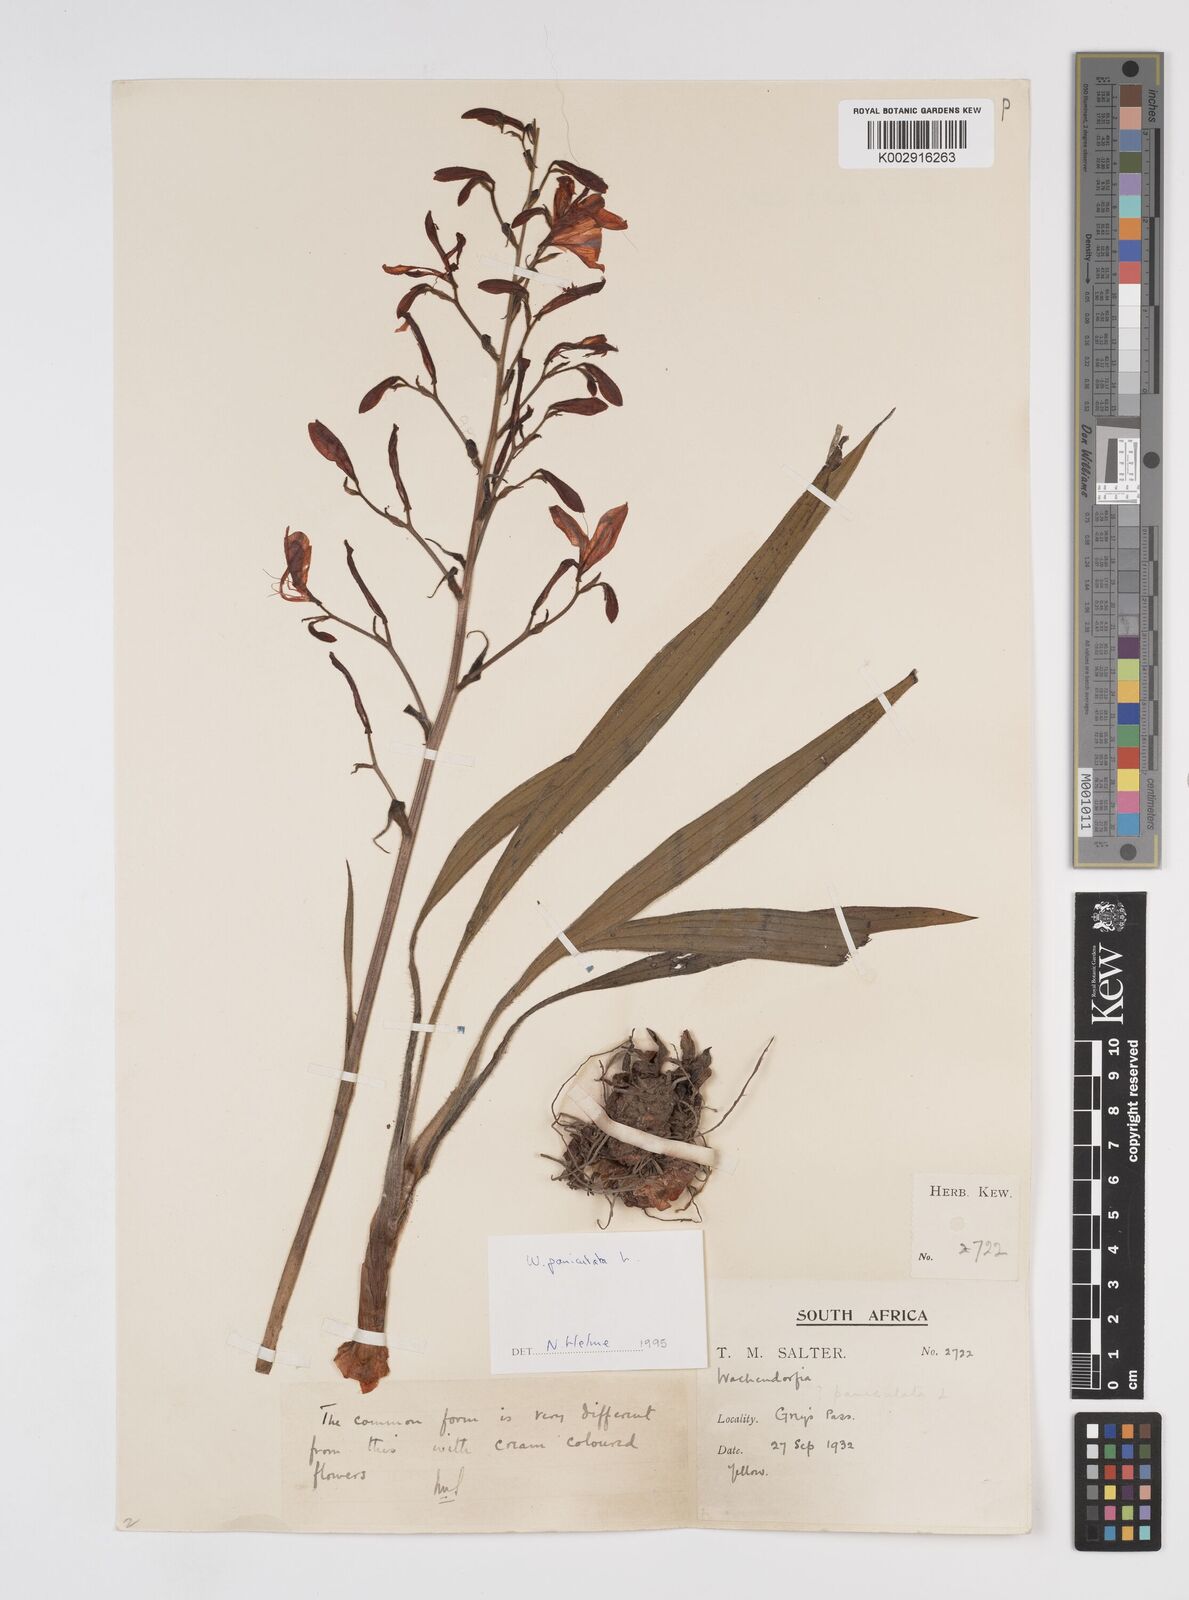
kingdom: Plantae
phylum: Tracheophyta
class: Liliopsida
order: Commelinales
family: Haemodoraceae
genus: Wachendorfia
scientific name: Wachendorfia paniculata
